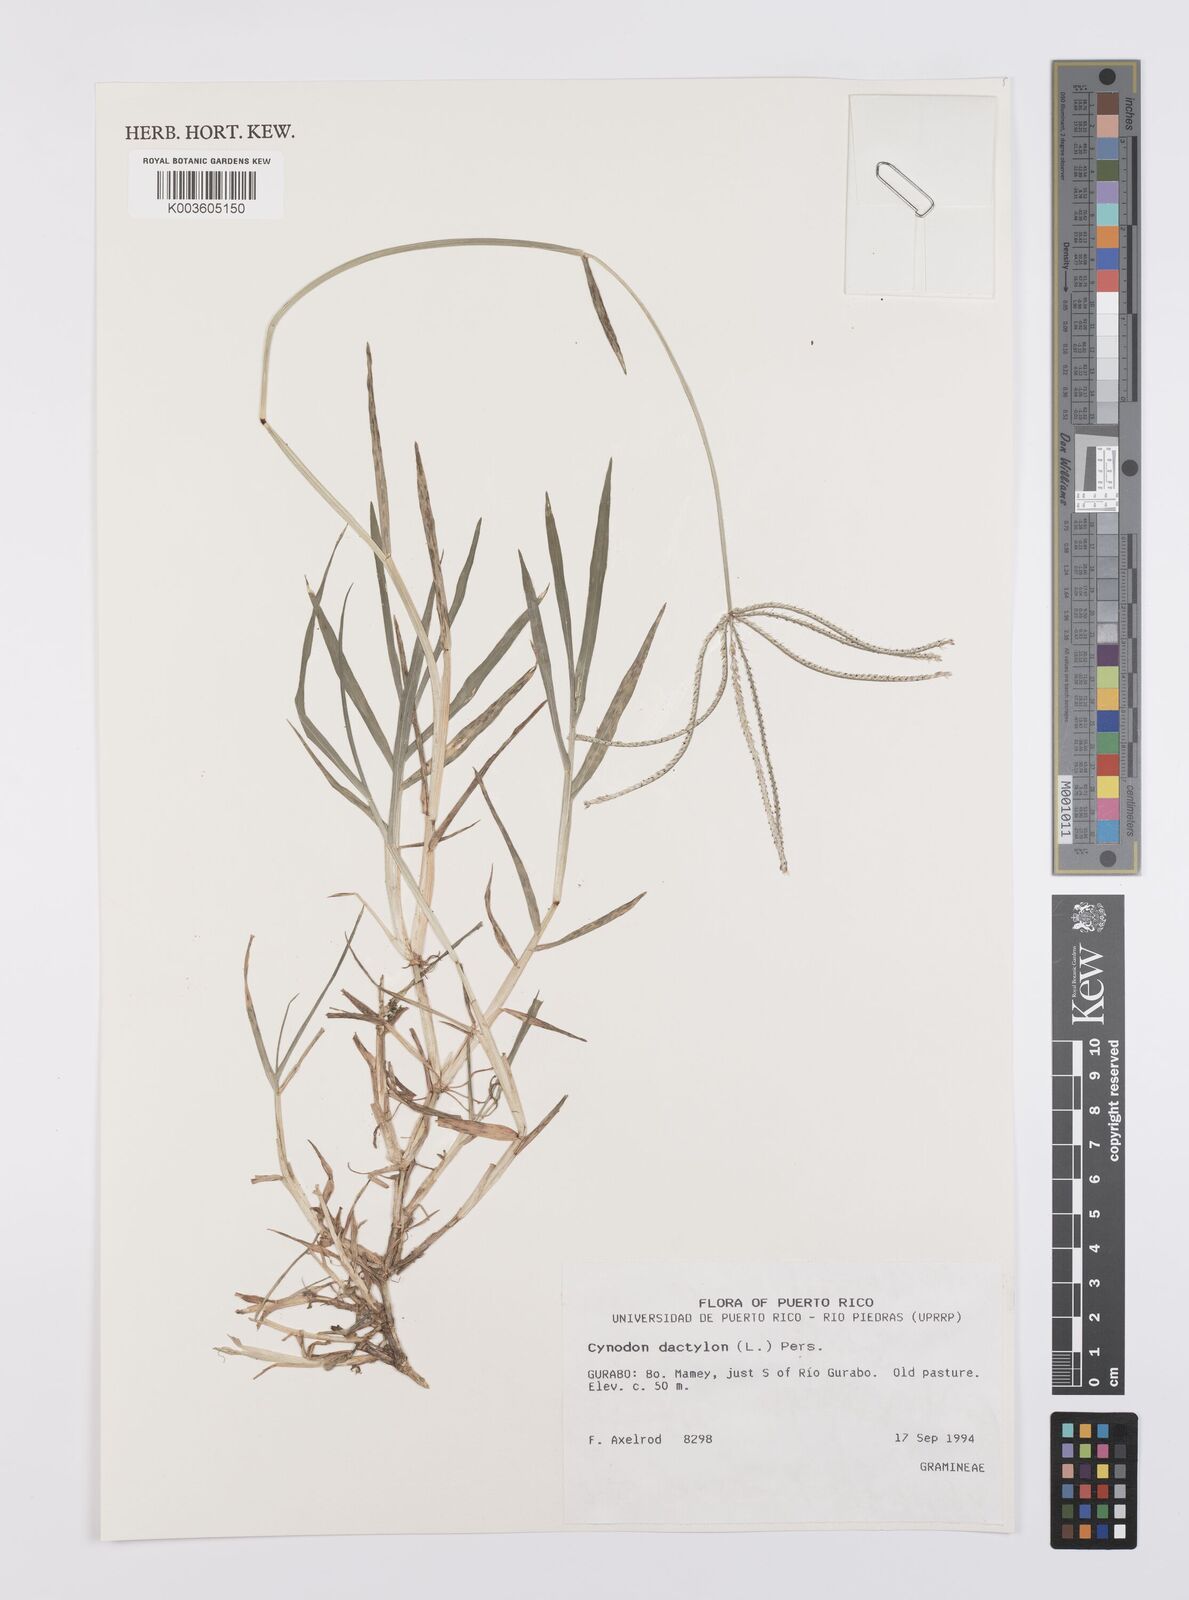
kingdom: Plantae
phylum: Tracheophyta
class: Liliopsida
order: Poales
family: Poaceae
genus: Cynodon
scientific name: Cynodon dactylon
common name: Bermuda grass
